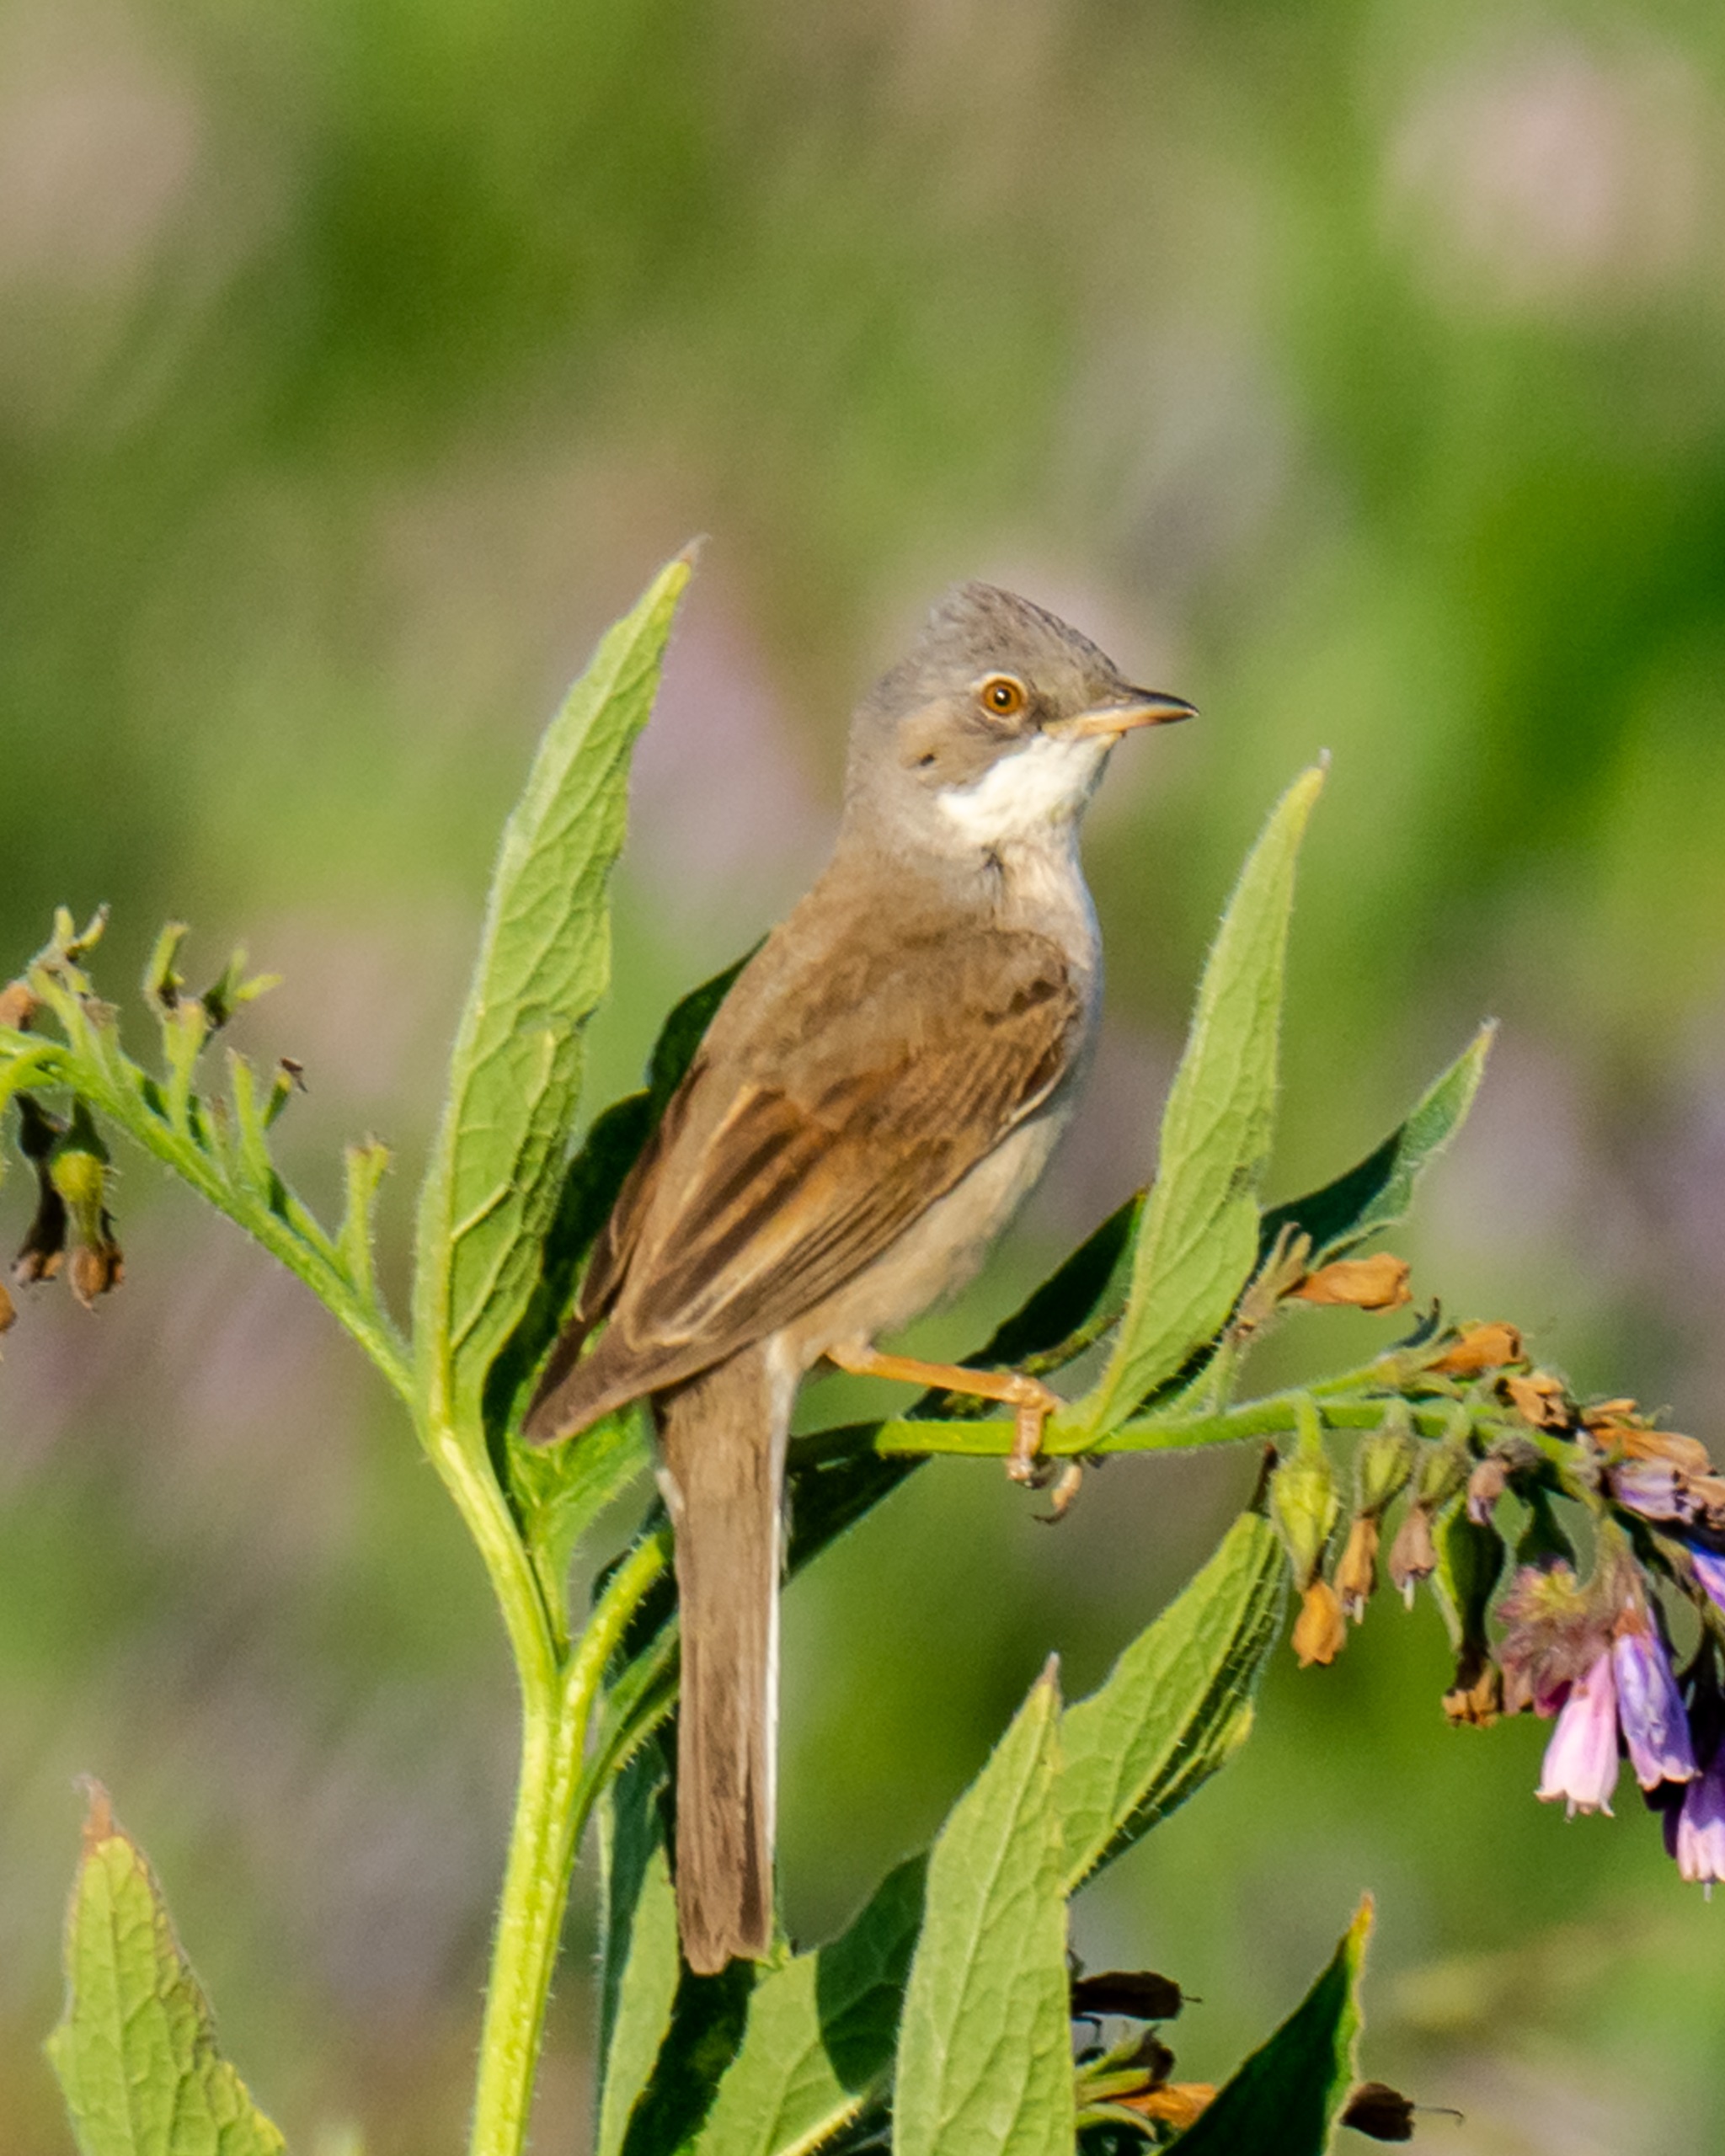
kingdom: Animalia
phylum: Chordata
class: Aves
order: Passeriformes
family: Sylviidae
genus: Sylvia
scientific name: Sylvia communis
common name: Tornsanger
